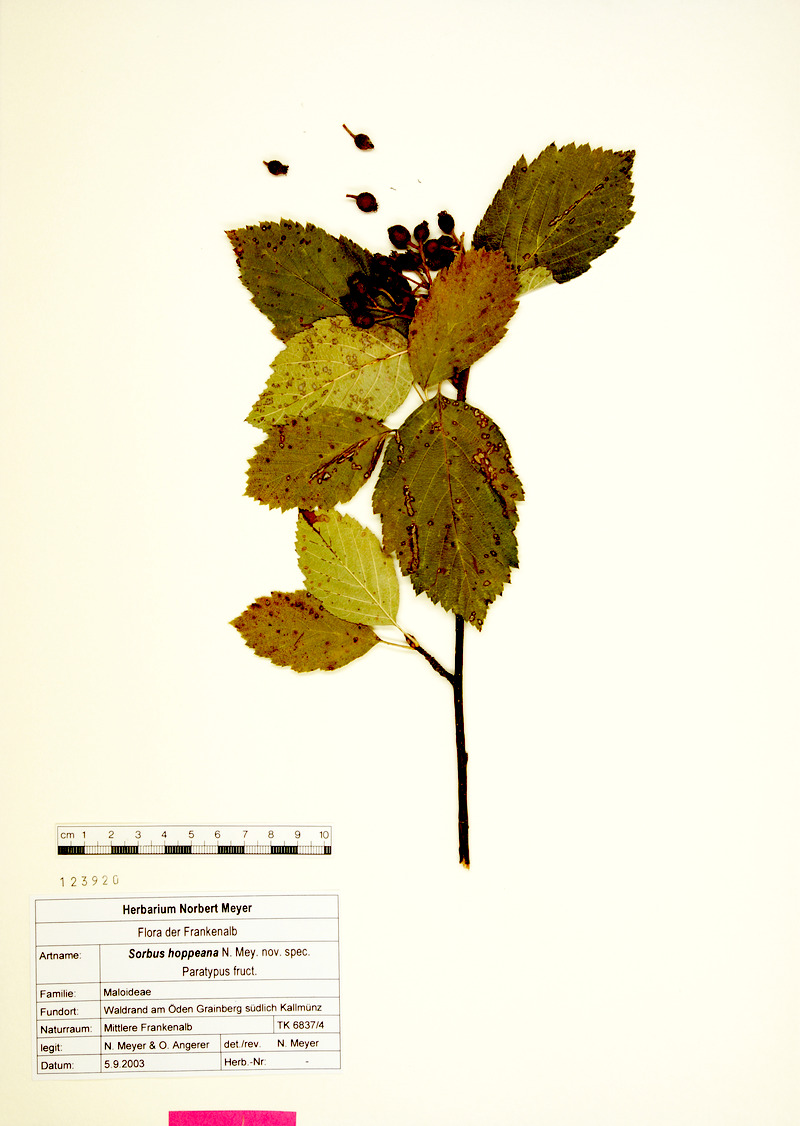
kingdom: Plantae
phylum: Tracheophyta
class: Magnoliopsida
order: Rosales
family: Rosaceae
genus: Karpatiosorbus
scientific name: Karpatiosorbus hoppeana
